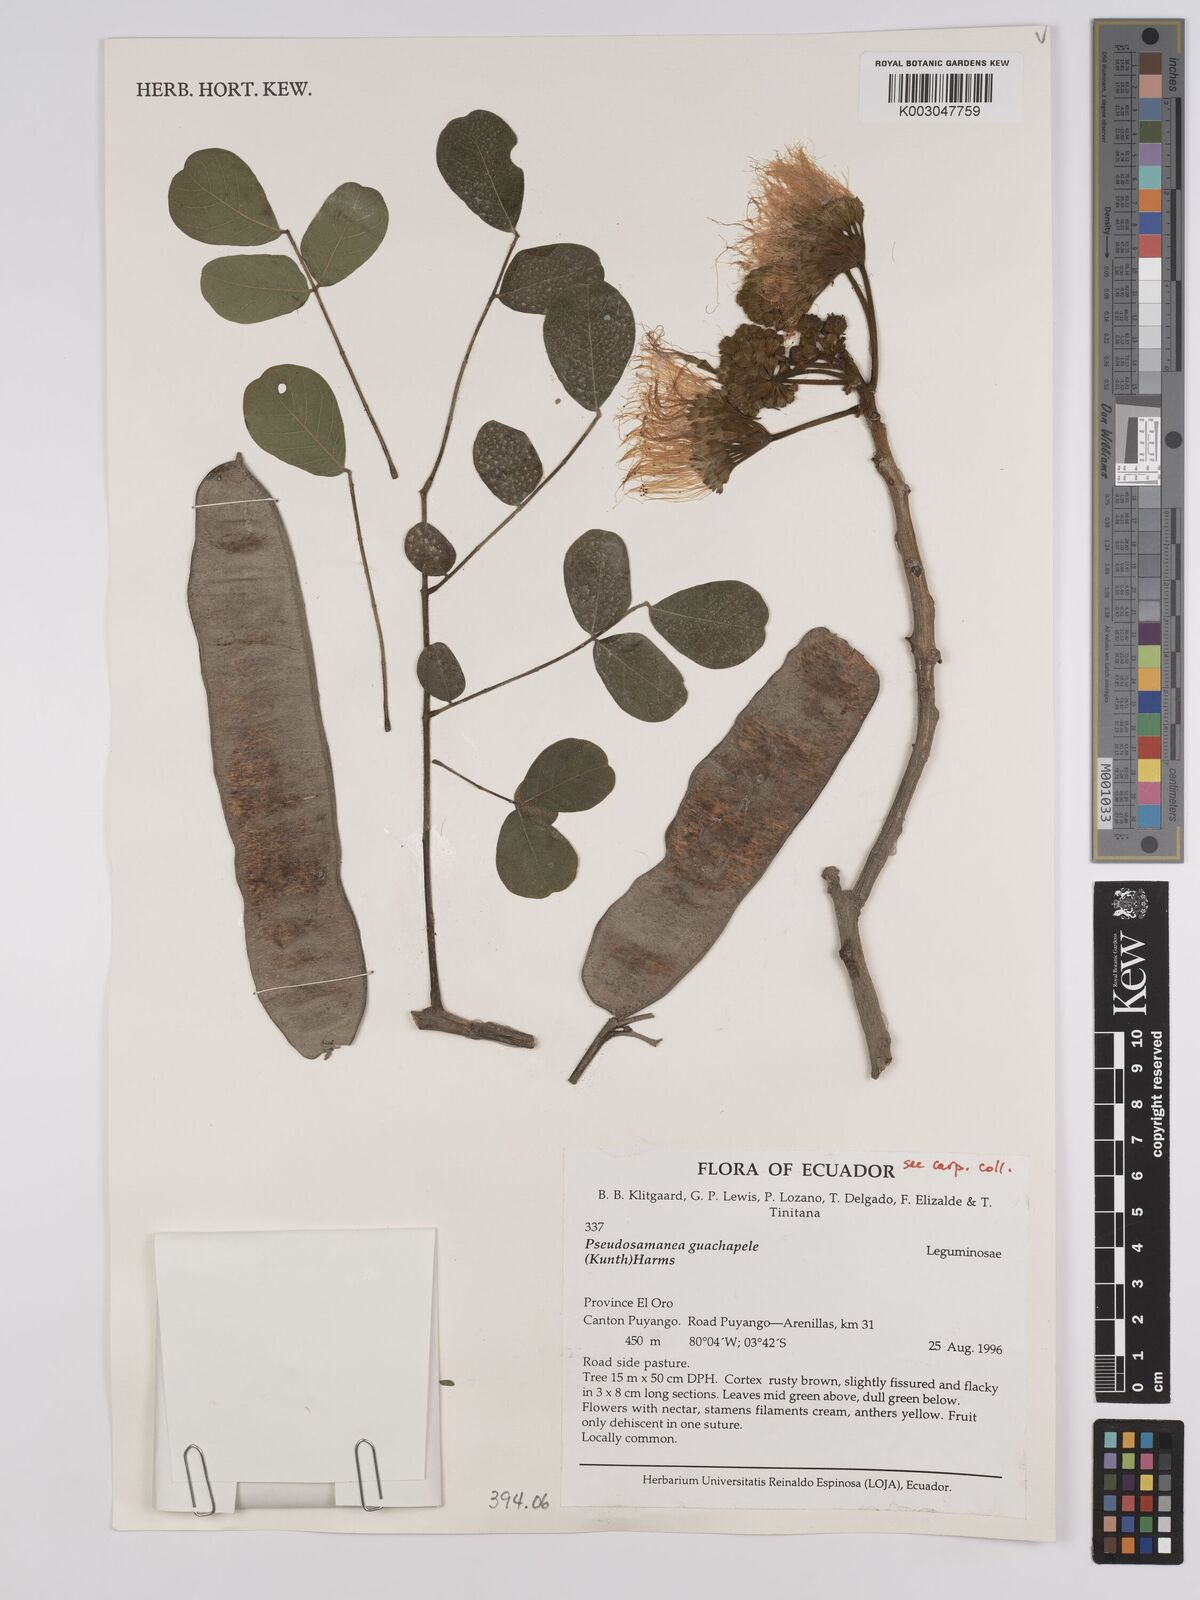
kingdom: Plantae
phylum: Tracheophyta
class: Magnoliopsida
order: Fabales
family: Fabaceae
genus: Pseudosamanea
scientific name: Pseudosamanea guachapele
